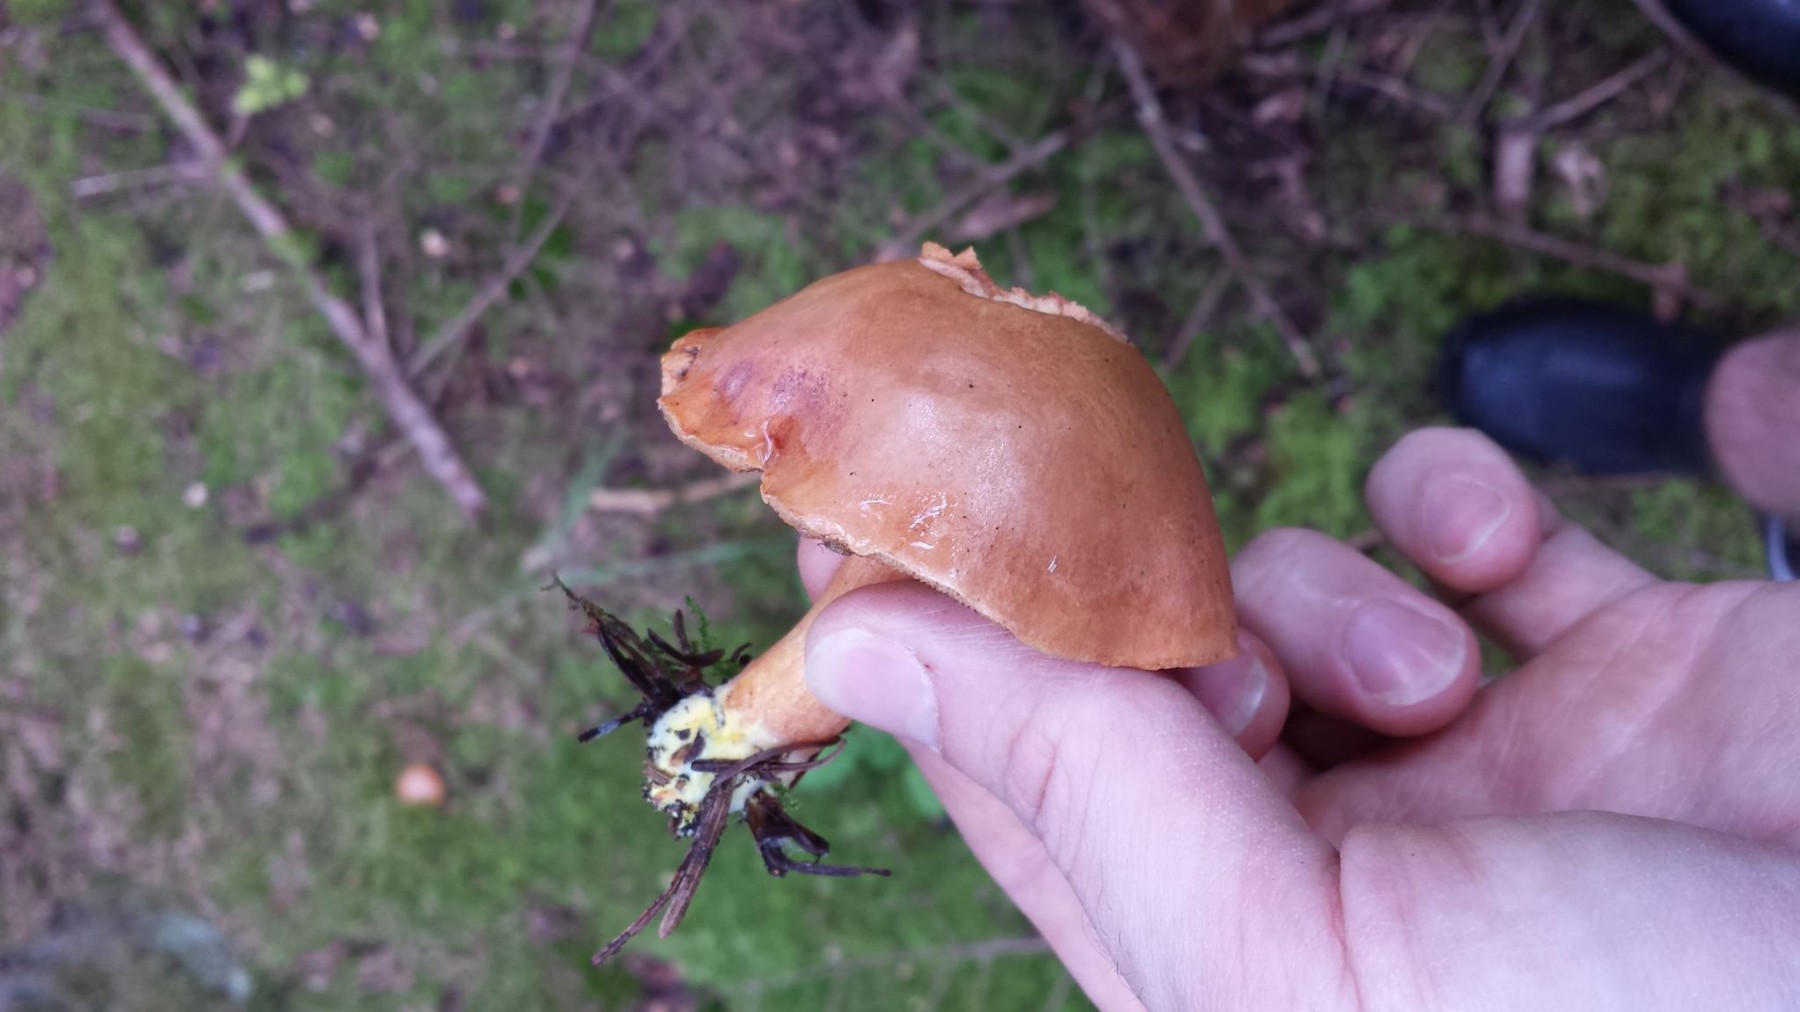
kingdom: Fungi
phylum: Basidiomycota
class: Agaricomycetes
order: Boletales
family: Boletaceae
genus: Chalciporus
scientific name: Chalciporus piperatus
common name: peberrørhat
